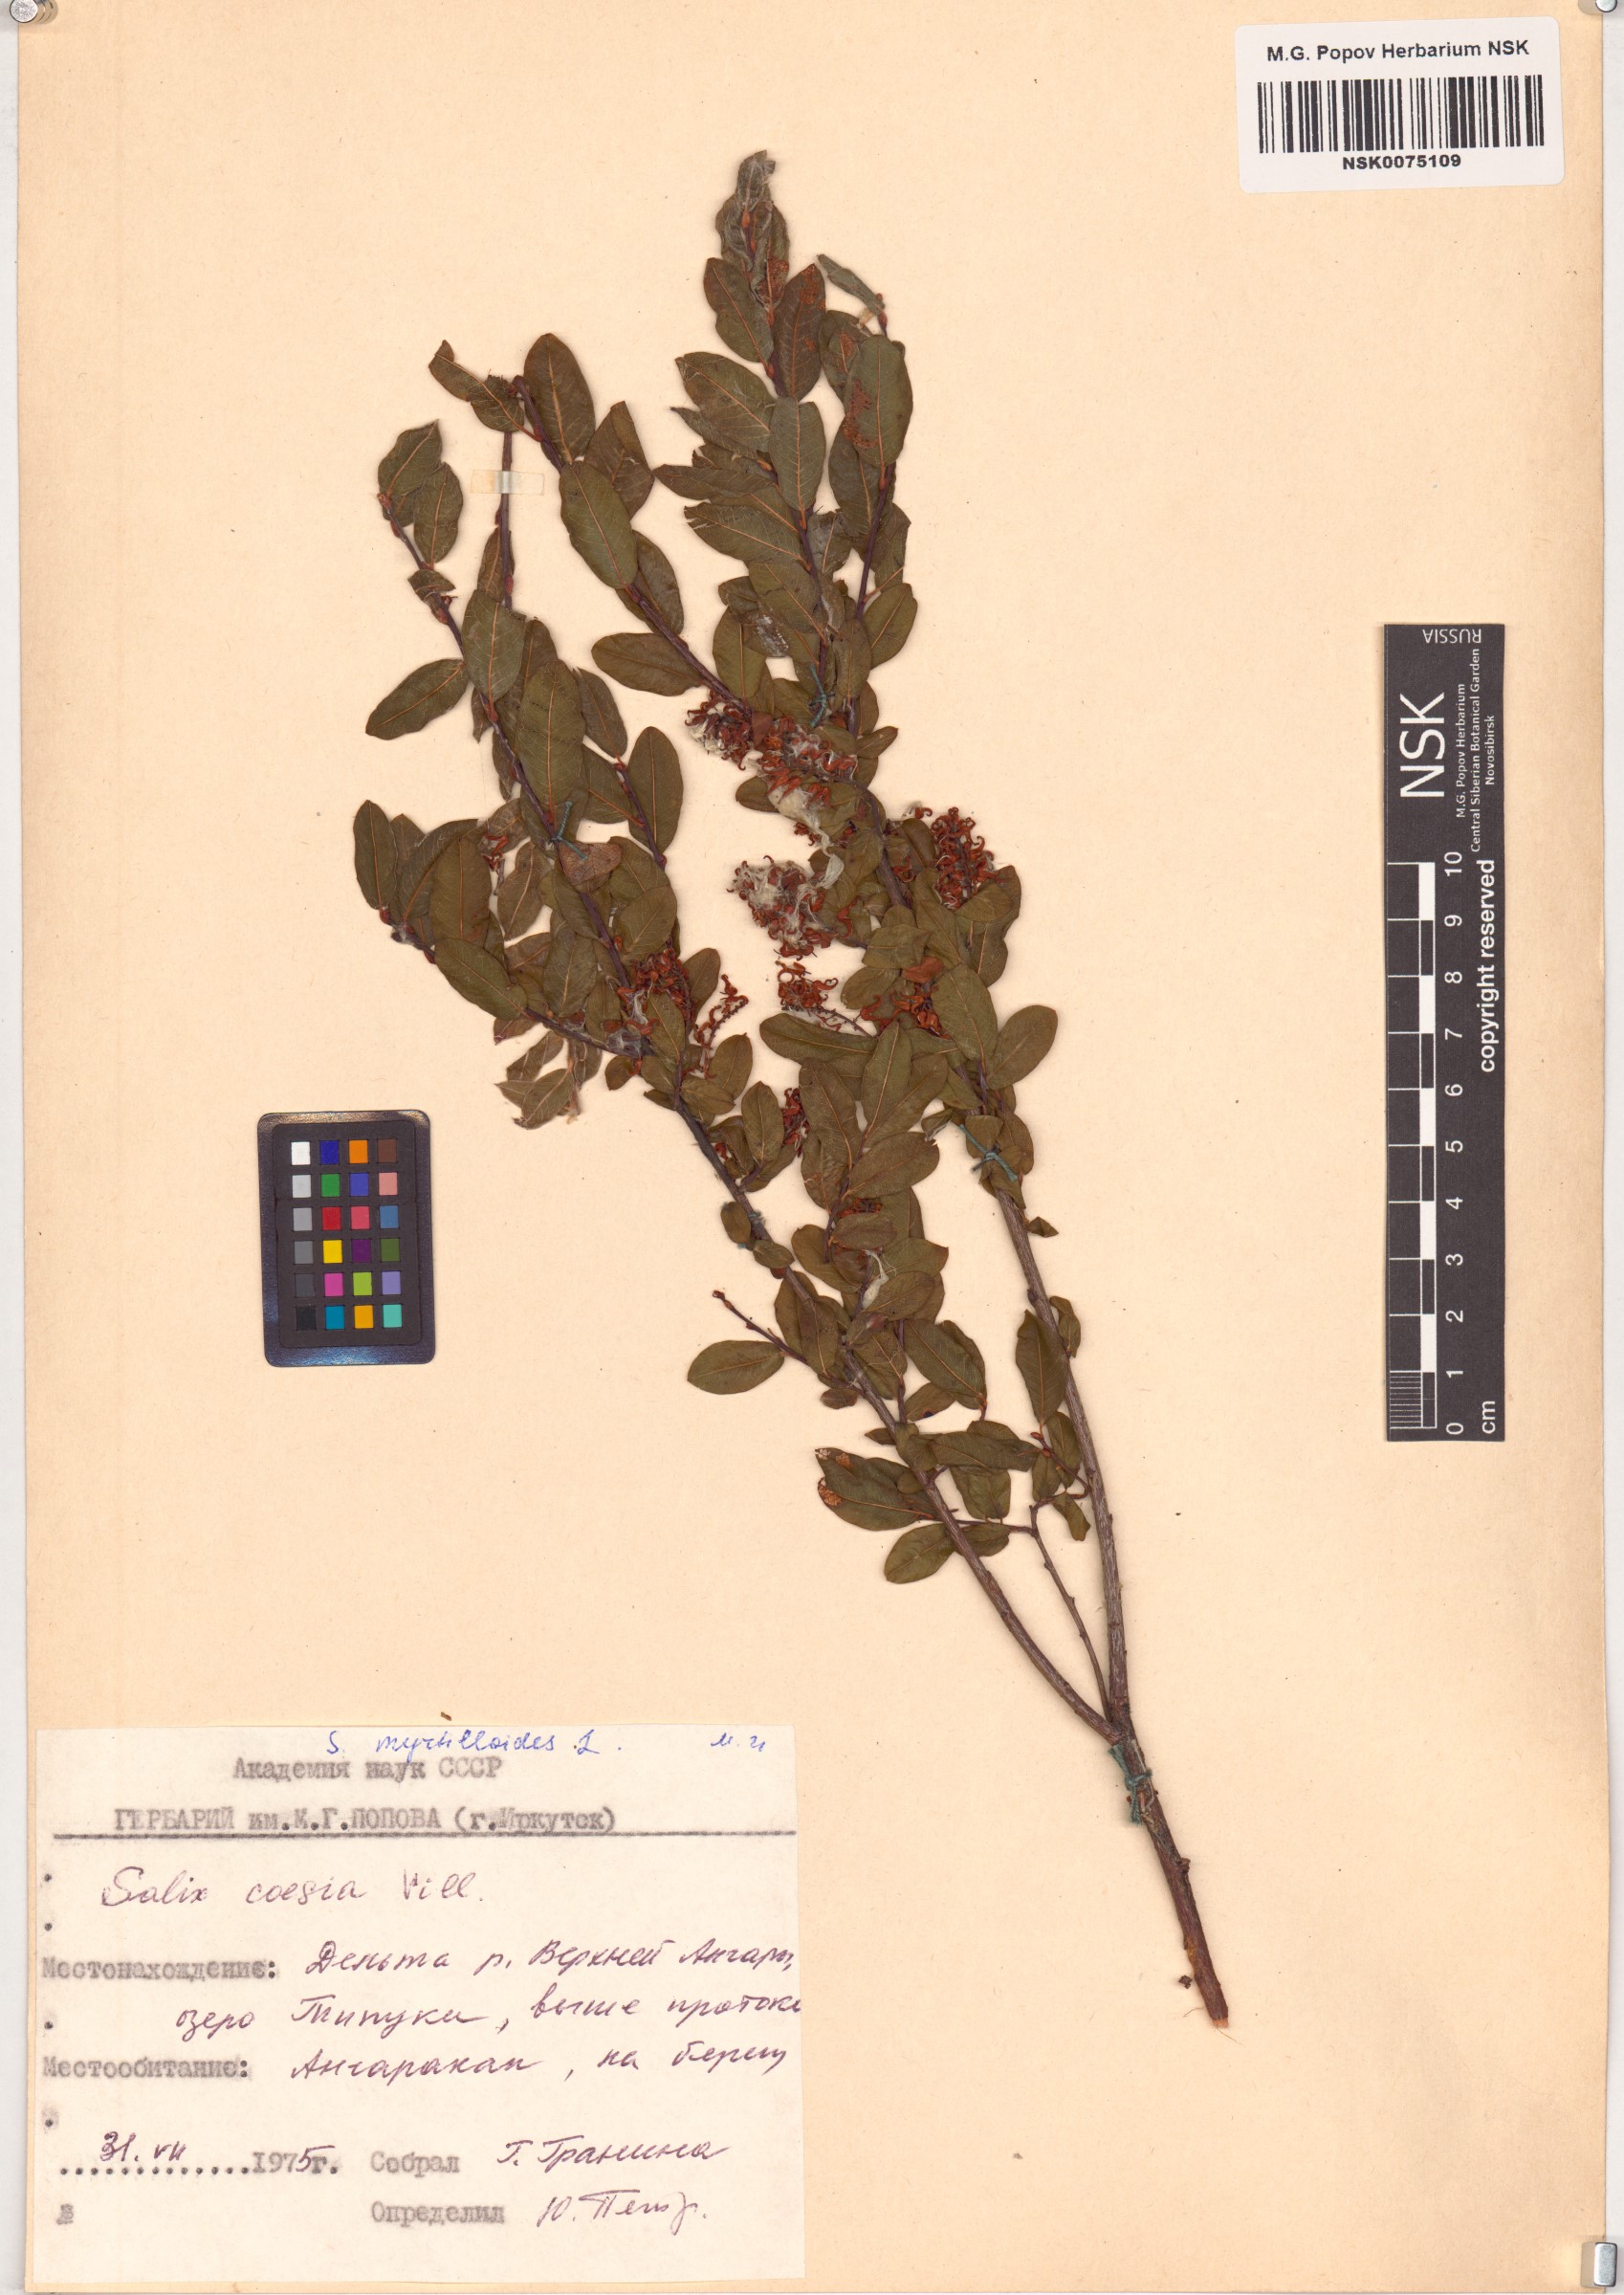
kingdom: Plantae
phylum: Tracheophyta
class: Magnoliopsida
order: Malpighiales
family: Salicaceae
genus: Salix
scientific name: Salix myrtilloides
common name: Myrtle-leaved willow
